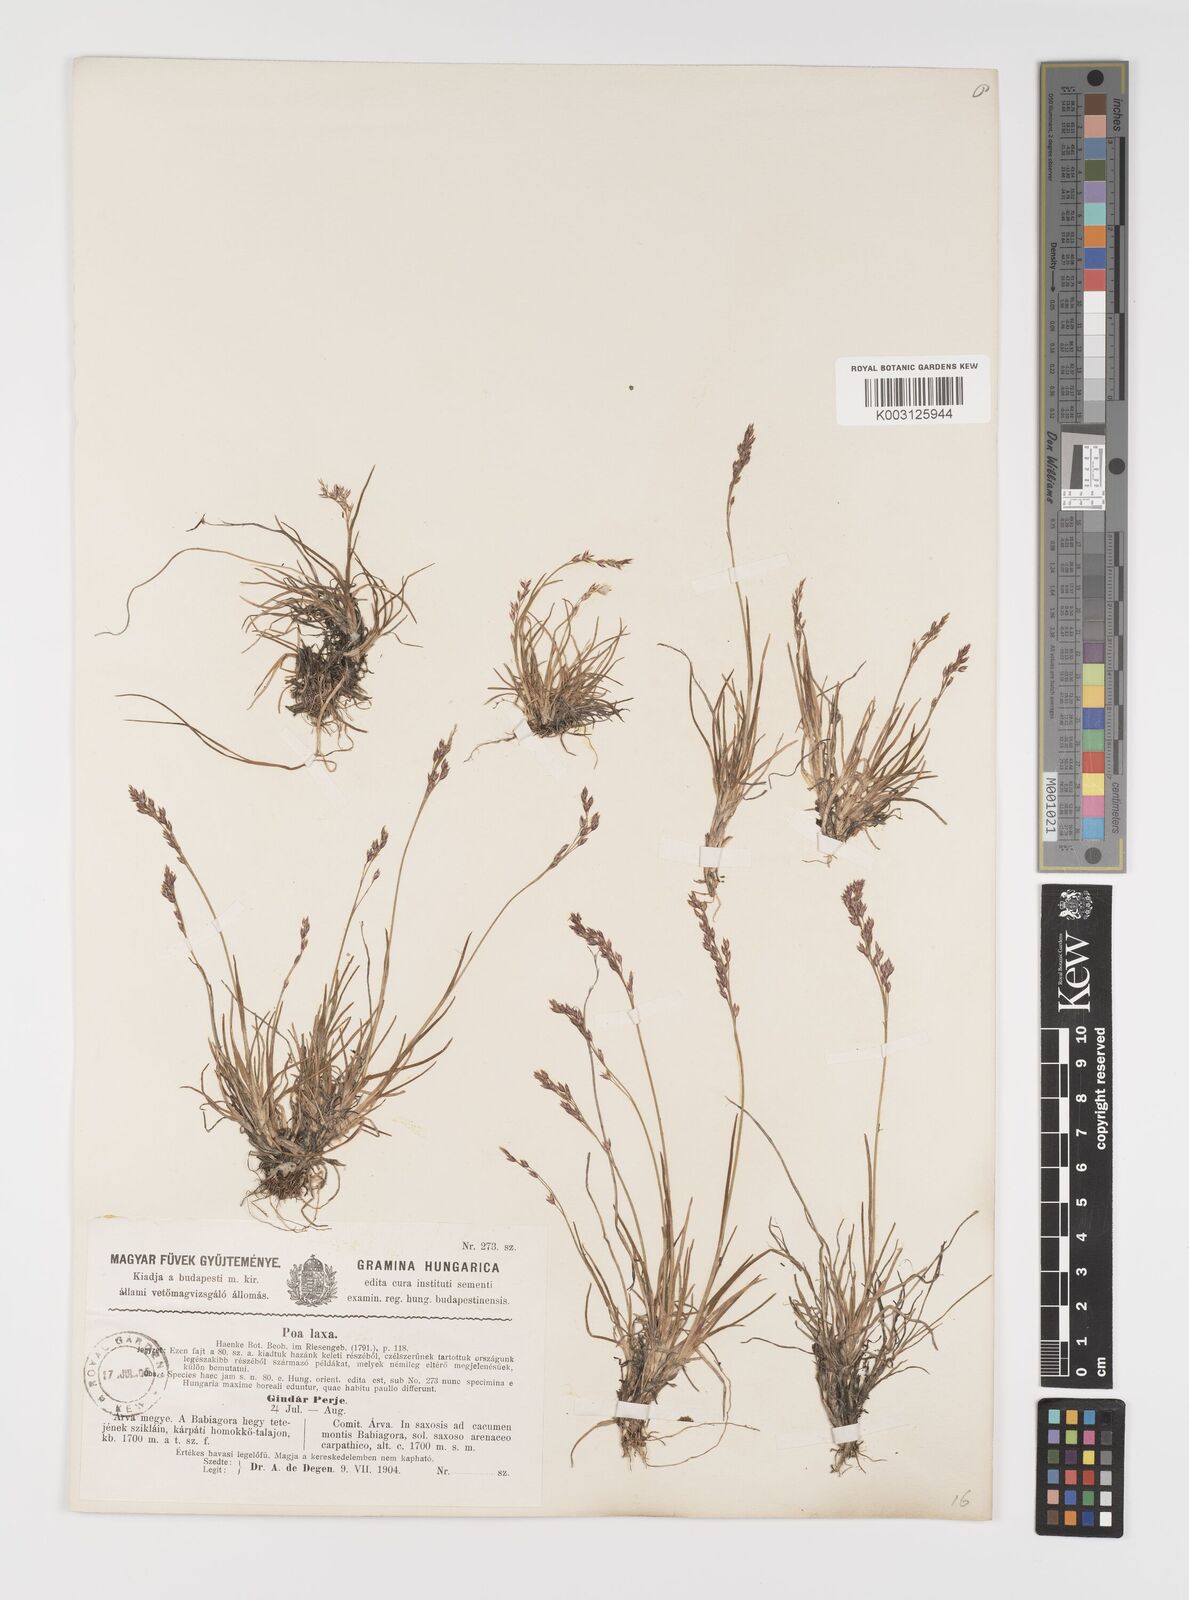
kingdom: Plantae
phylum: Tracheophyta
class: Liliopsida
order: Poales
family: Poaceae
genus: Poa
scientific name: Poa laxa
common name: Lax bluegrass
